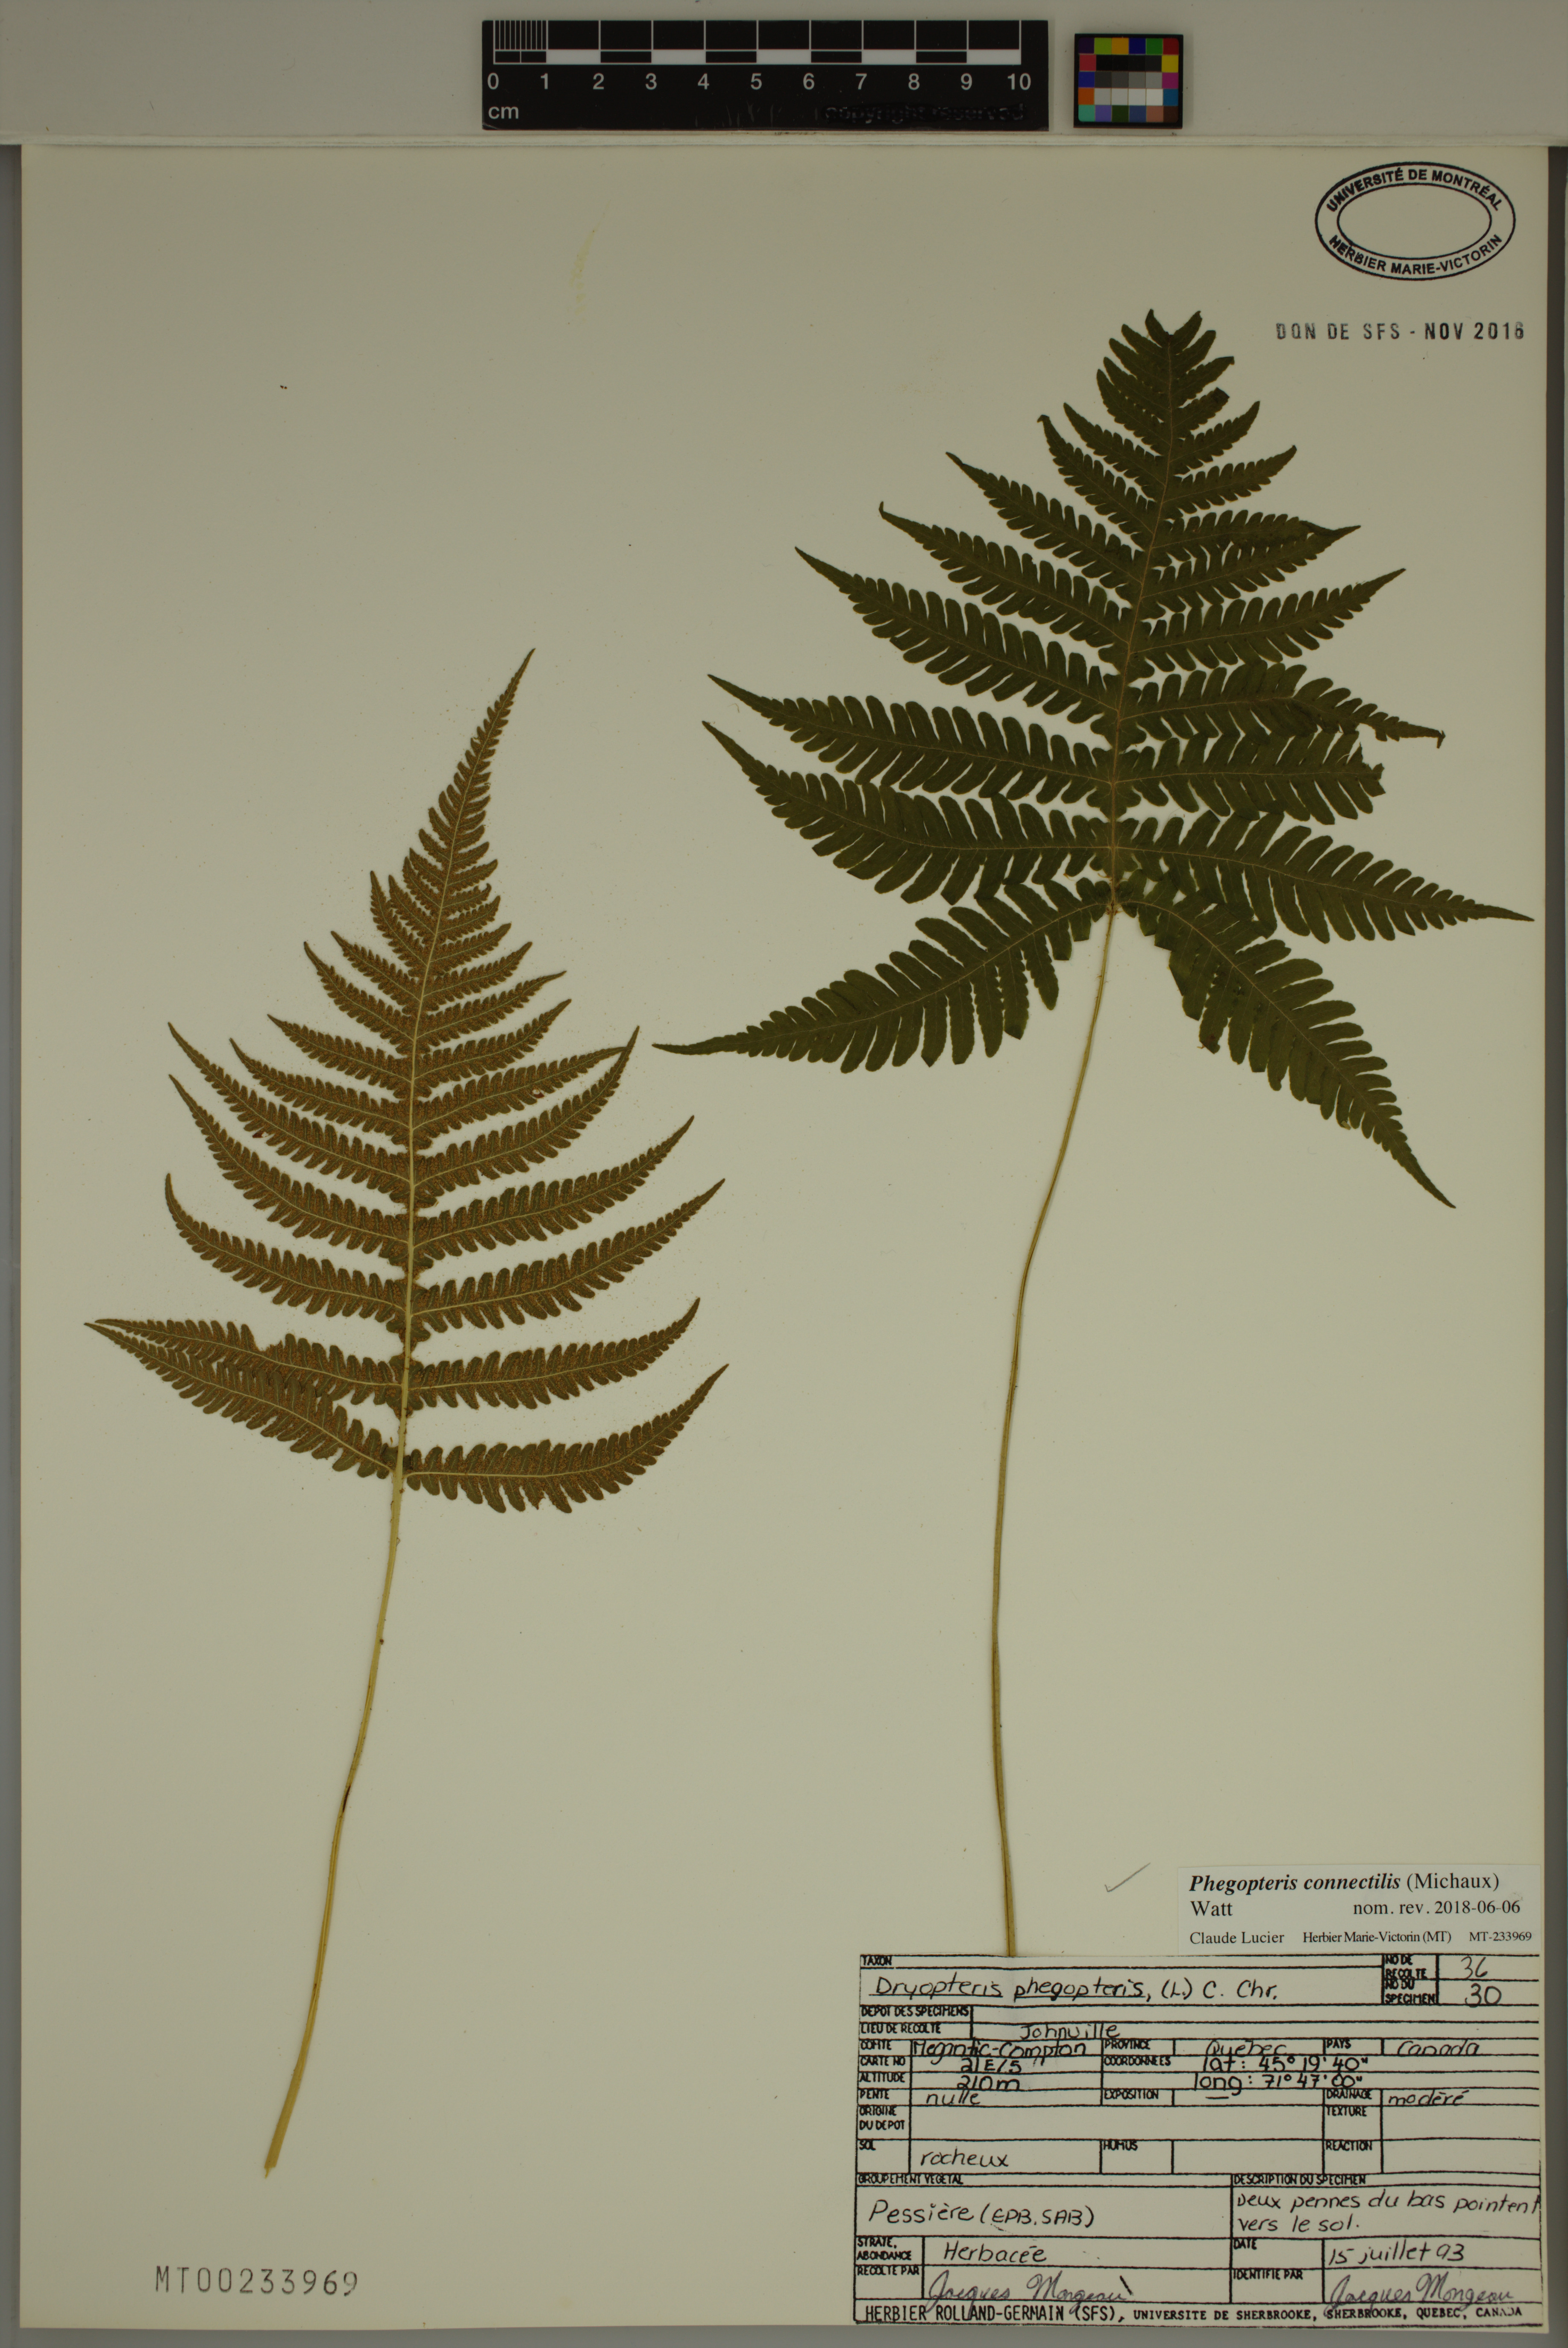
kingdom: Plantae
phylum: Tracheophyta
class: Polypodiopsida
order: Polypodiales
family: Thelypteridaceae
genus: Phegopteris
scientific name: Phegopteris connectilis
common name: Beech fern
